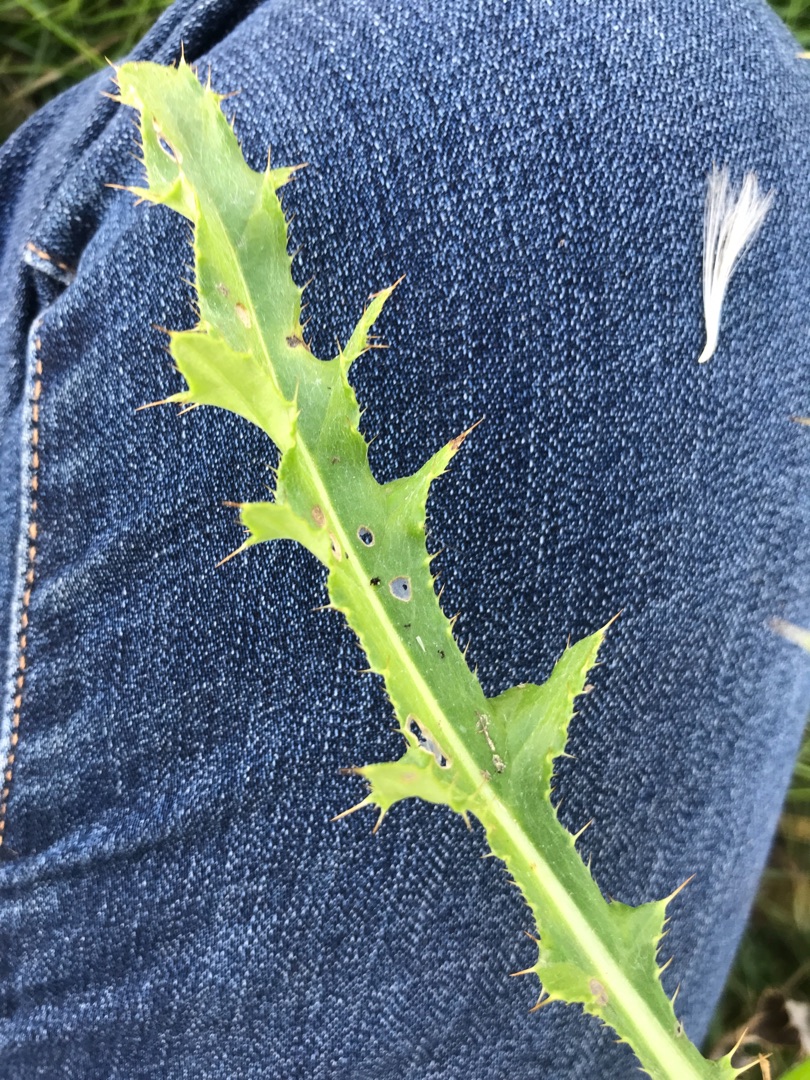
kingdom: Plantae
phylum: Tracheophyta
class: Magnoliopsida
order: Asterales
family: Asteraceae
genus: Cirsium
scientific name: Cirsium arvense
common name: Ager-tidsel
